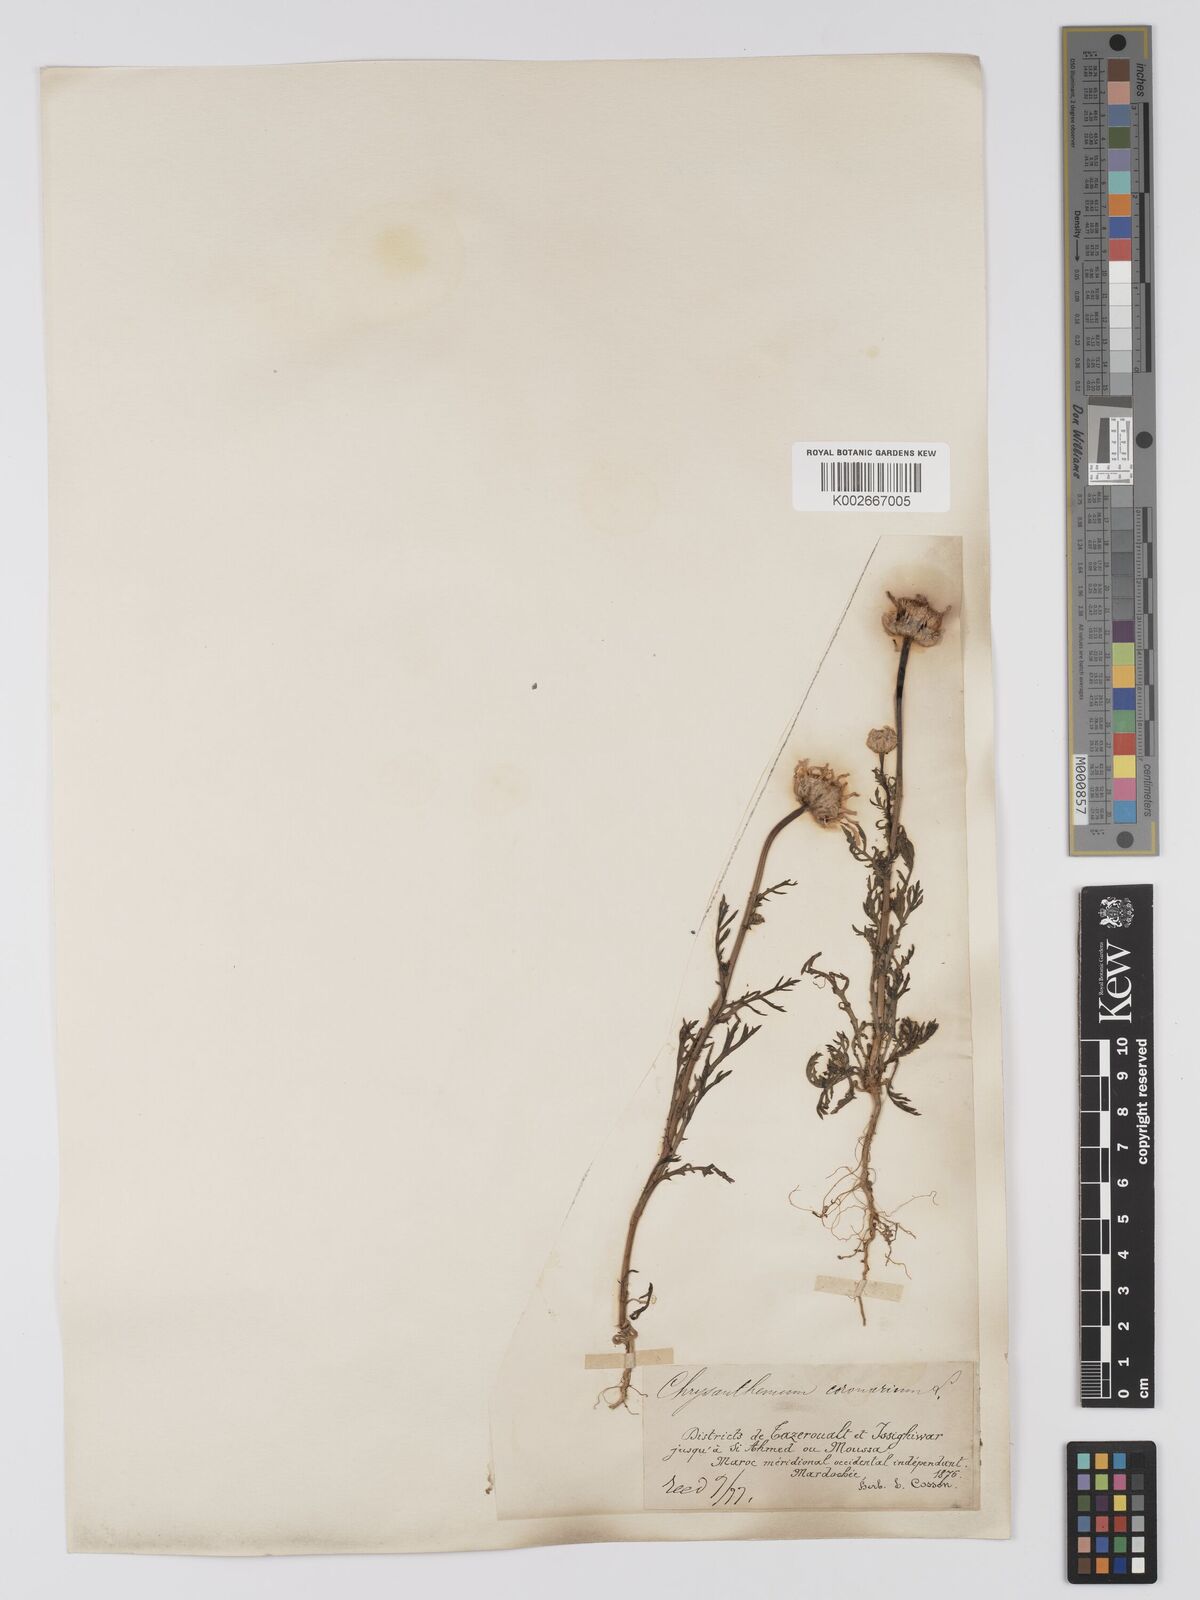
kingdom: Plantae
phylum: Tracheophyta
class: Magnoliopsida
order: Asterales
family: Asteraceae
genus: Glebionis
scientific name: Glebionis coronaria
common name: Crowndaisy
